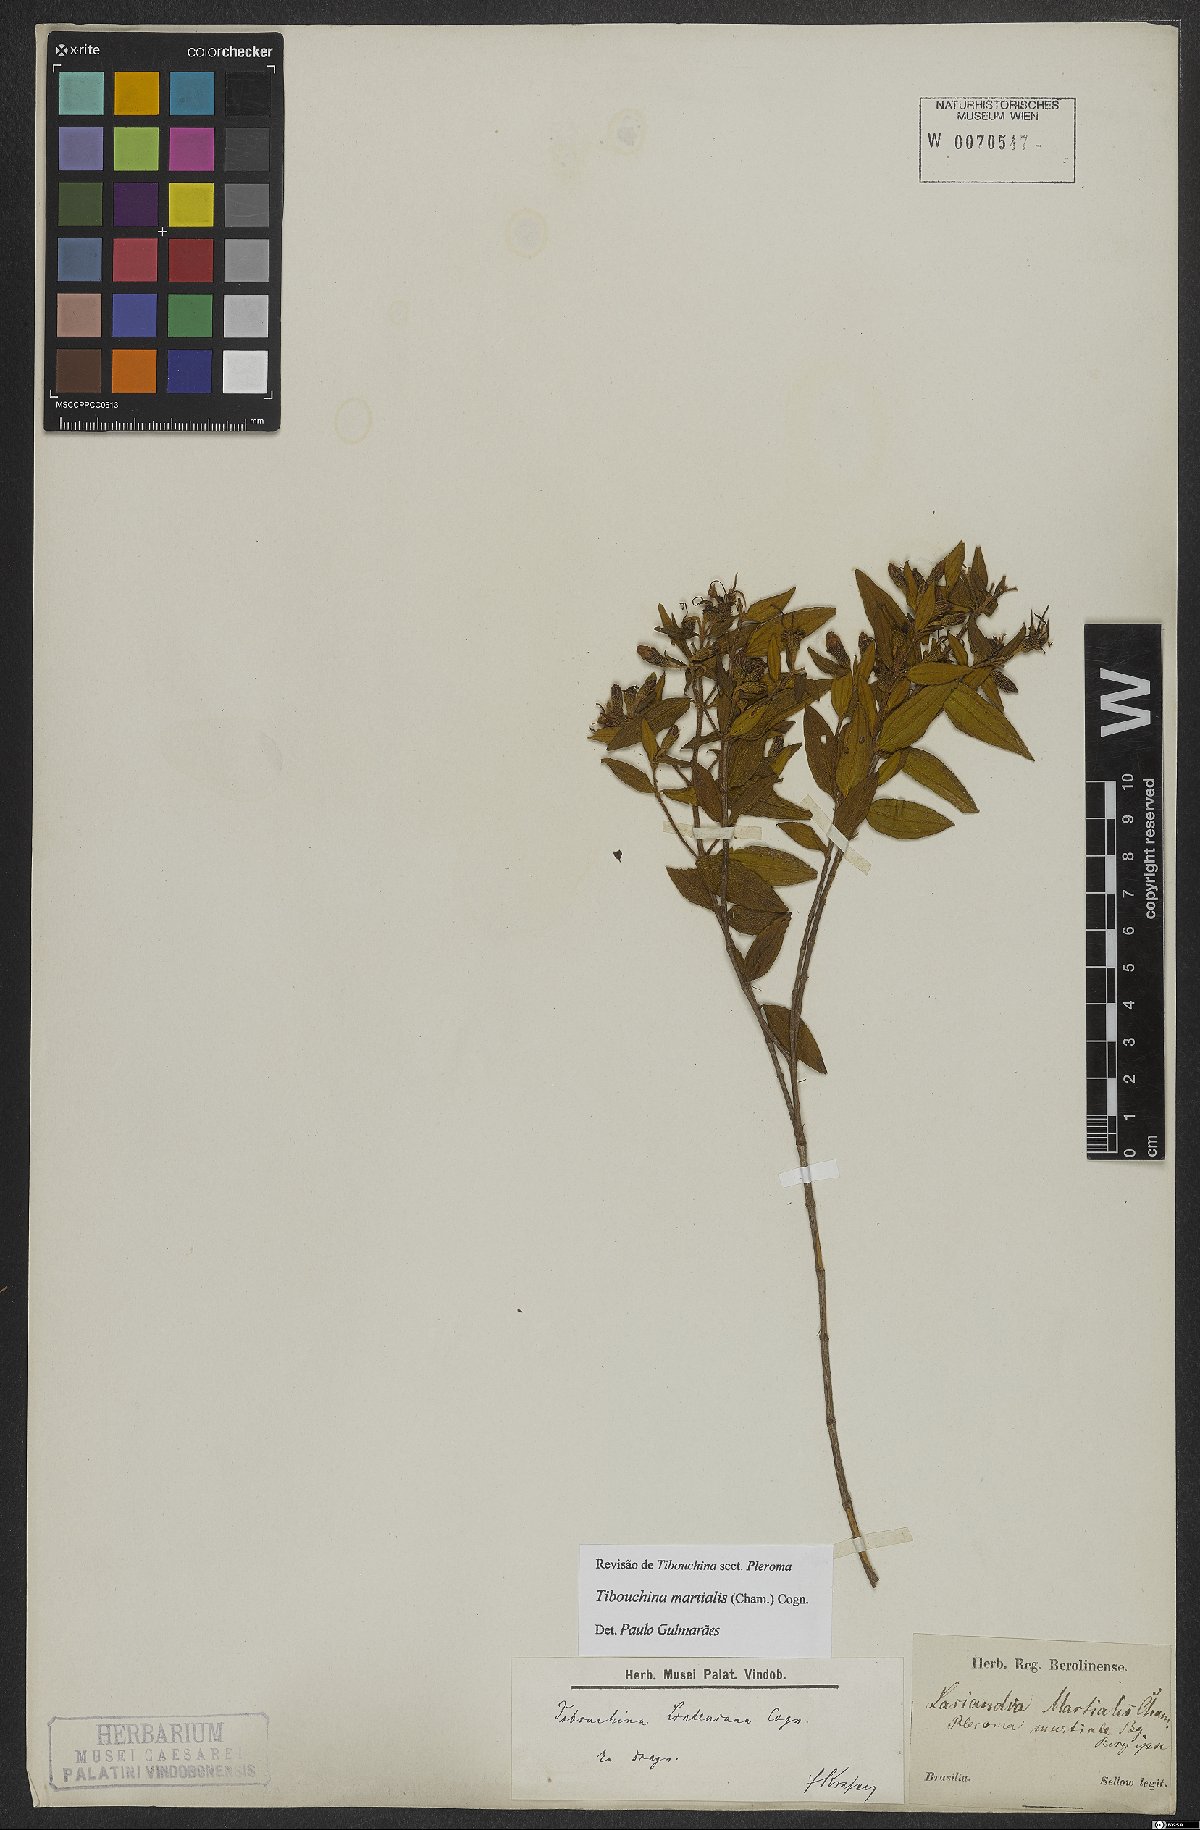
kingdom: Plantae
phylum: Tracheophyta
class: Magnoliopsida
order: Myrtales
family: Melastomataceae
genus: Pleroma
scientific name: Pleroma martiale
